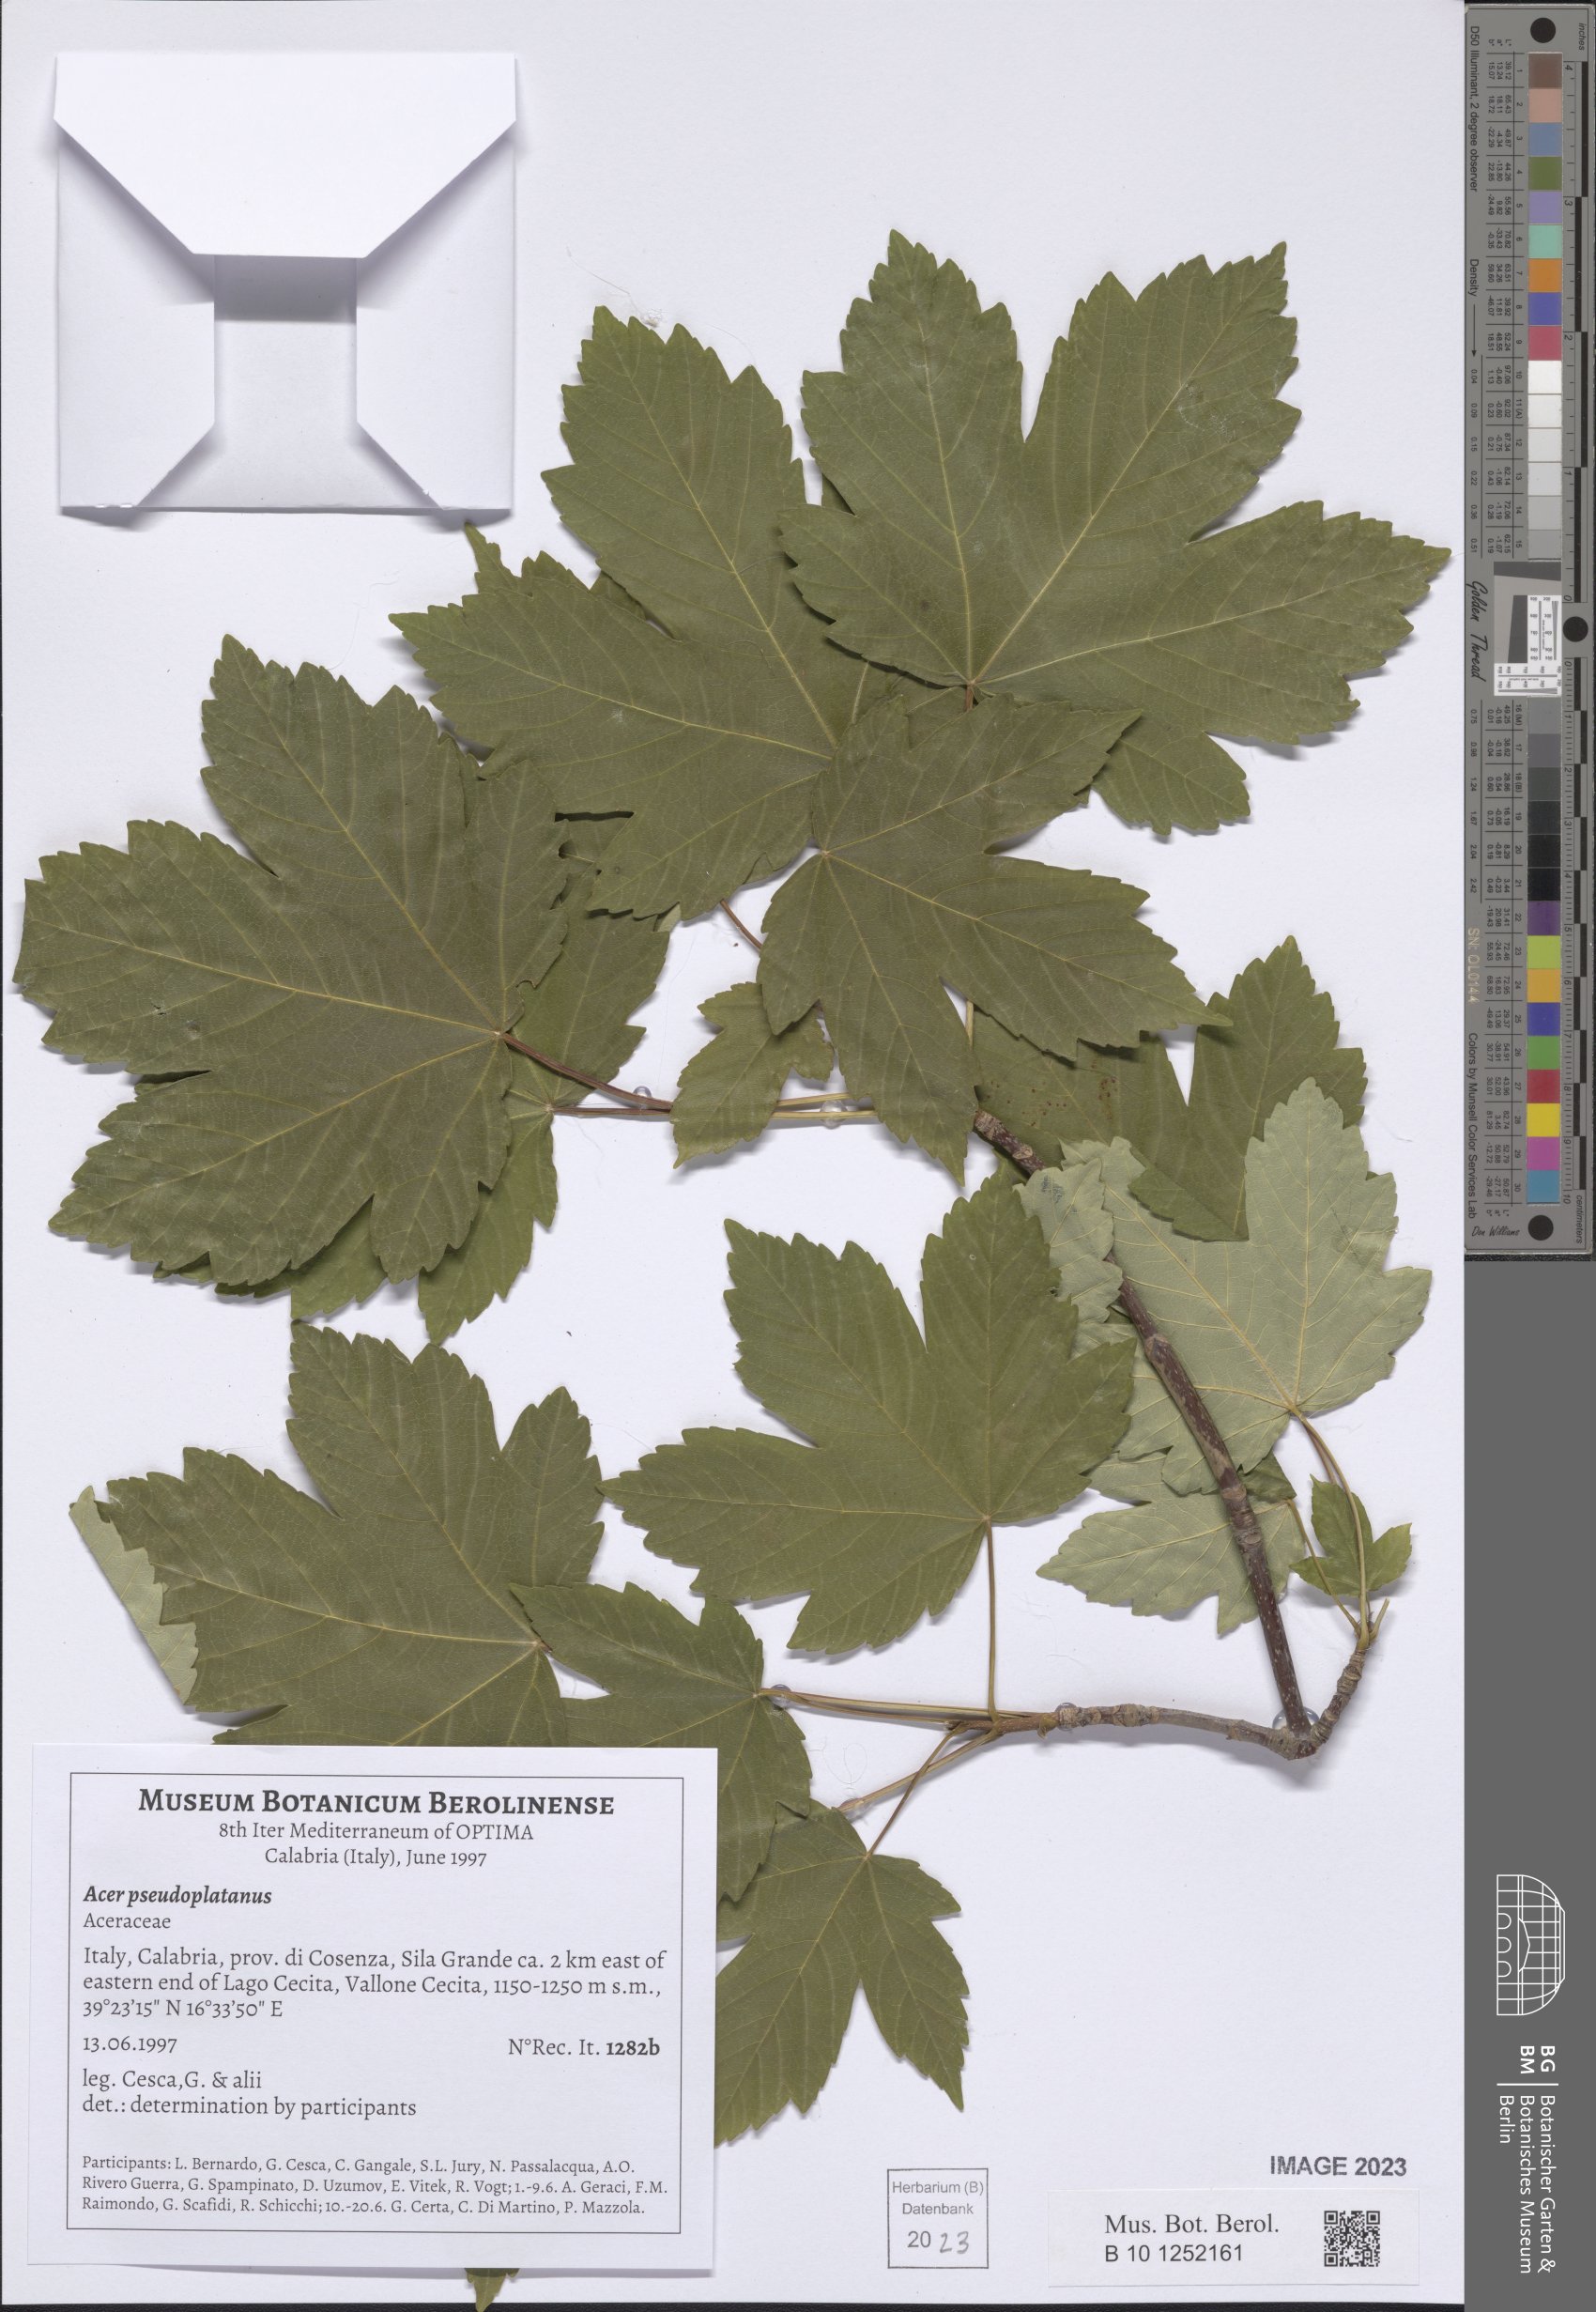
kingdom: Plantae
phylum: Tracheophyta
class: Magnoliopsida
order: Sapindales
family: Sapindaceae
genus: Acer
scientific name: Acer pseudoplatanus
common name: Sycamore
